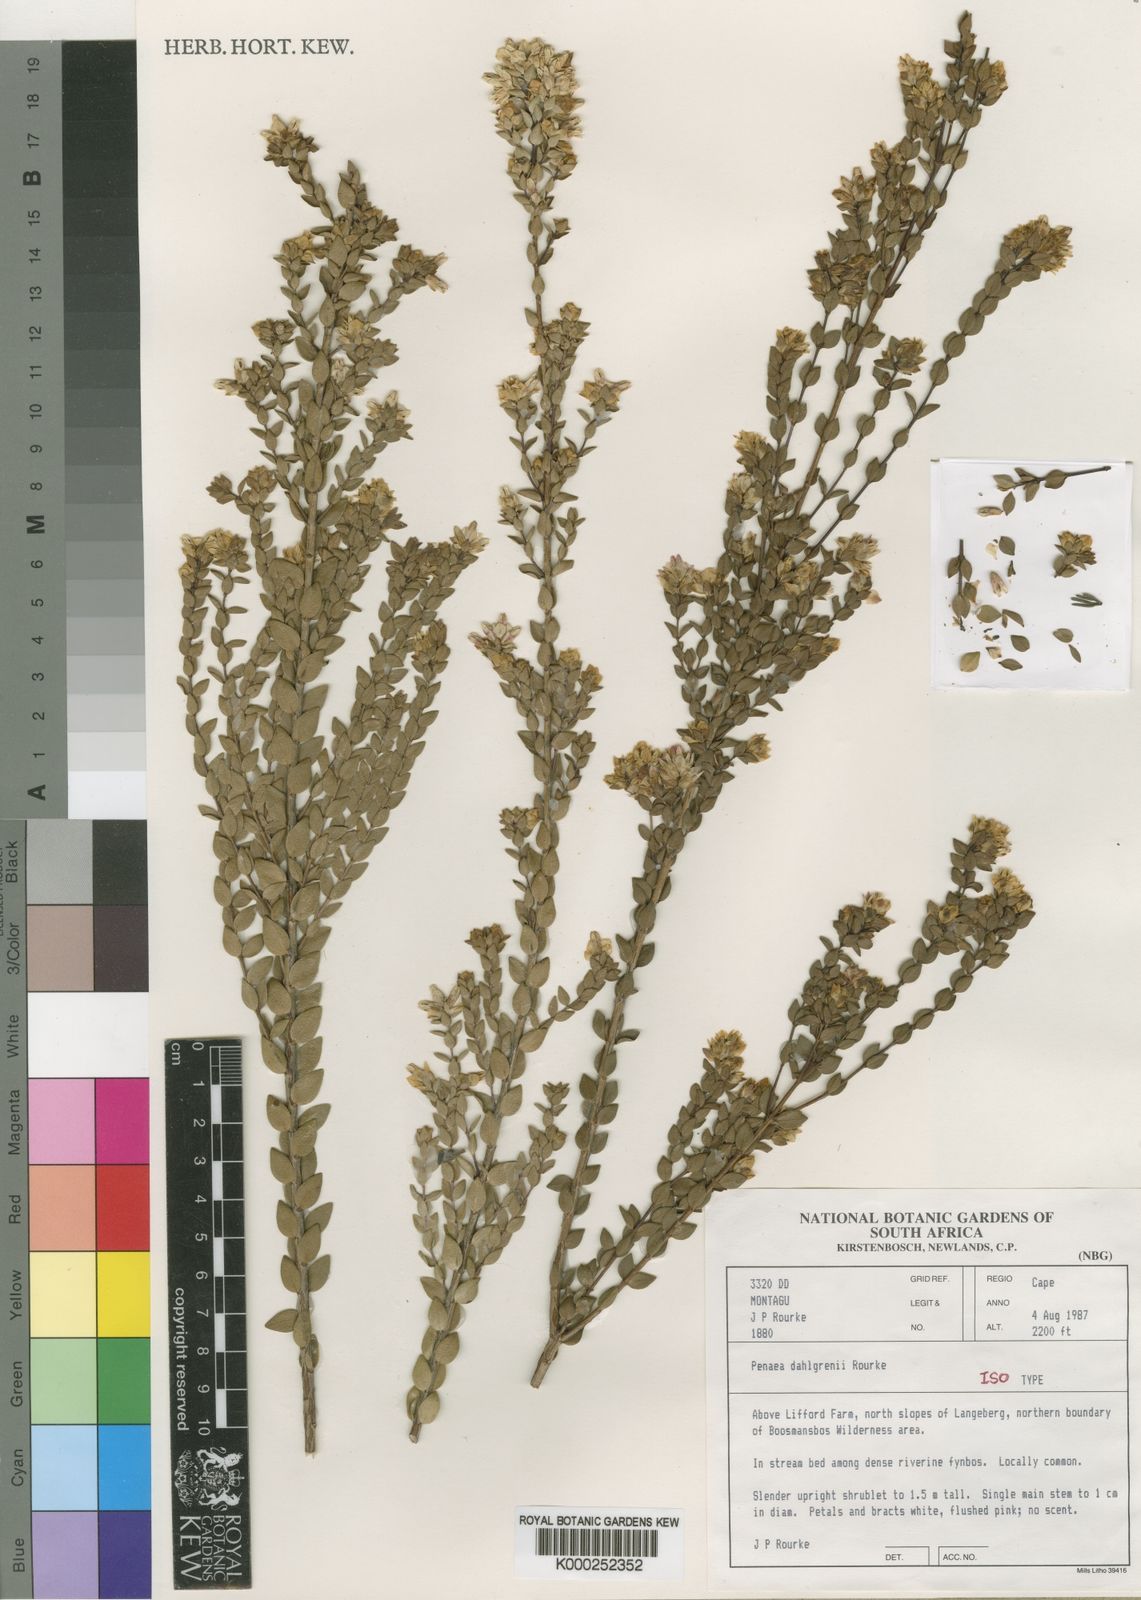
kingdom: Plantae
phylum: Tracheophyta
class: Magnoliopsida
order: Myrtales
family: Penaeaceae
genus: Stylapterus
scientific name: Stylapterus
